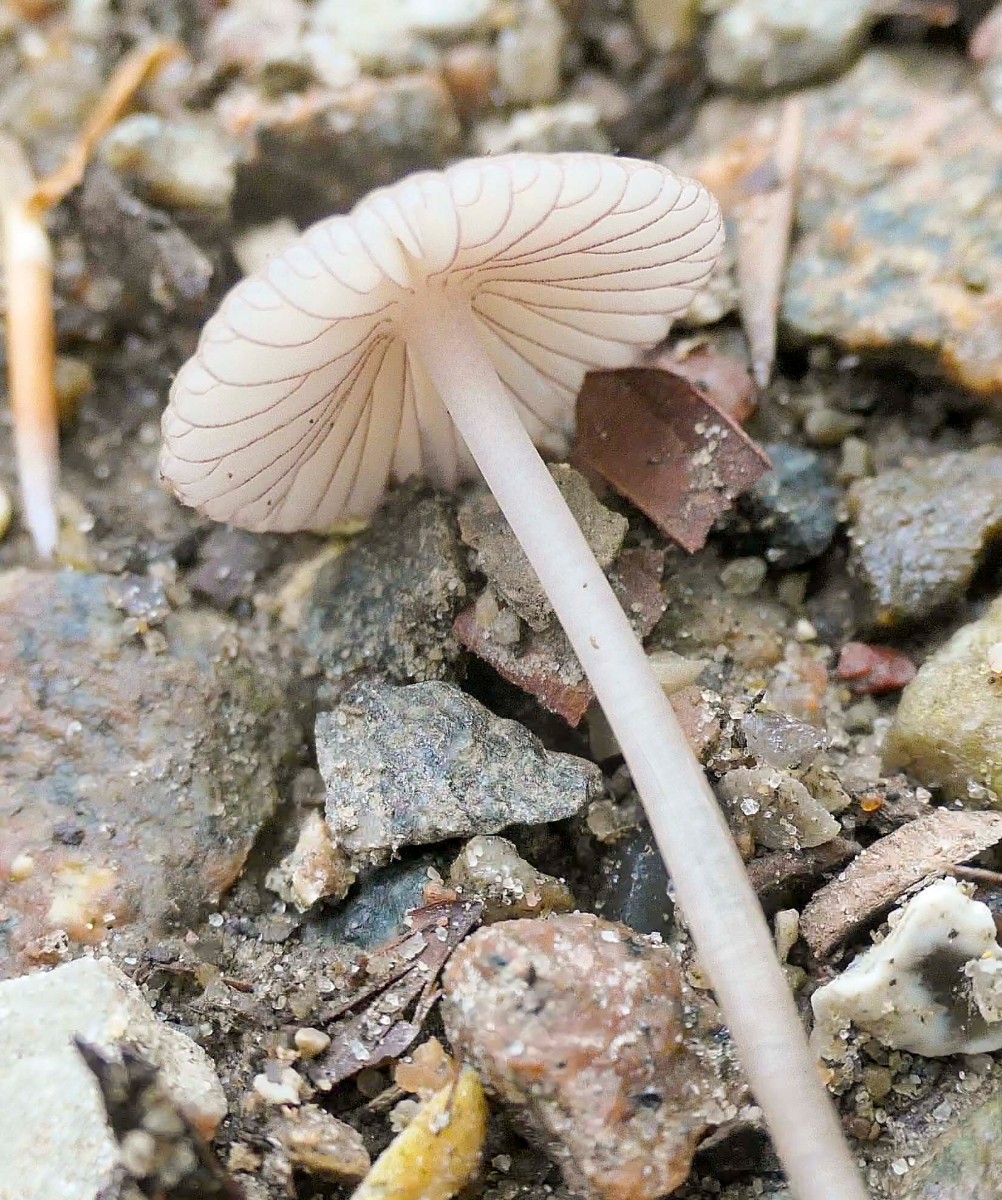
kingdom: Fungi
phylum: Basidiomycota
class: Agaricomycetes
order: Agaricales
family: Mycenaceae
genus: Mycena
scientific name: Mycena rubromarginata
